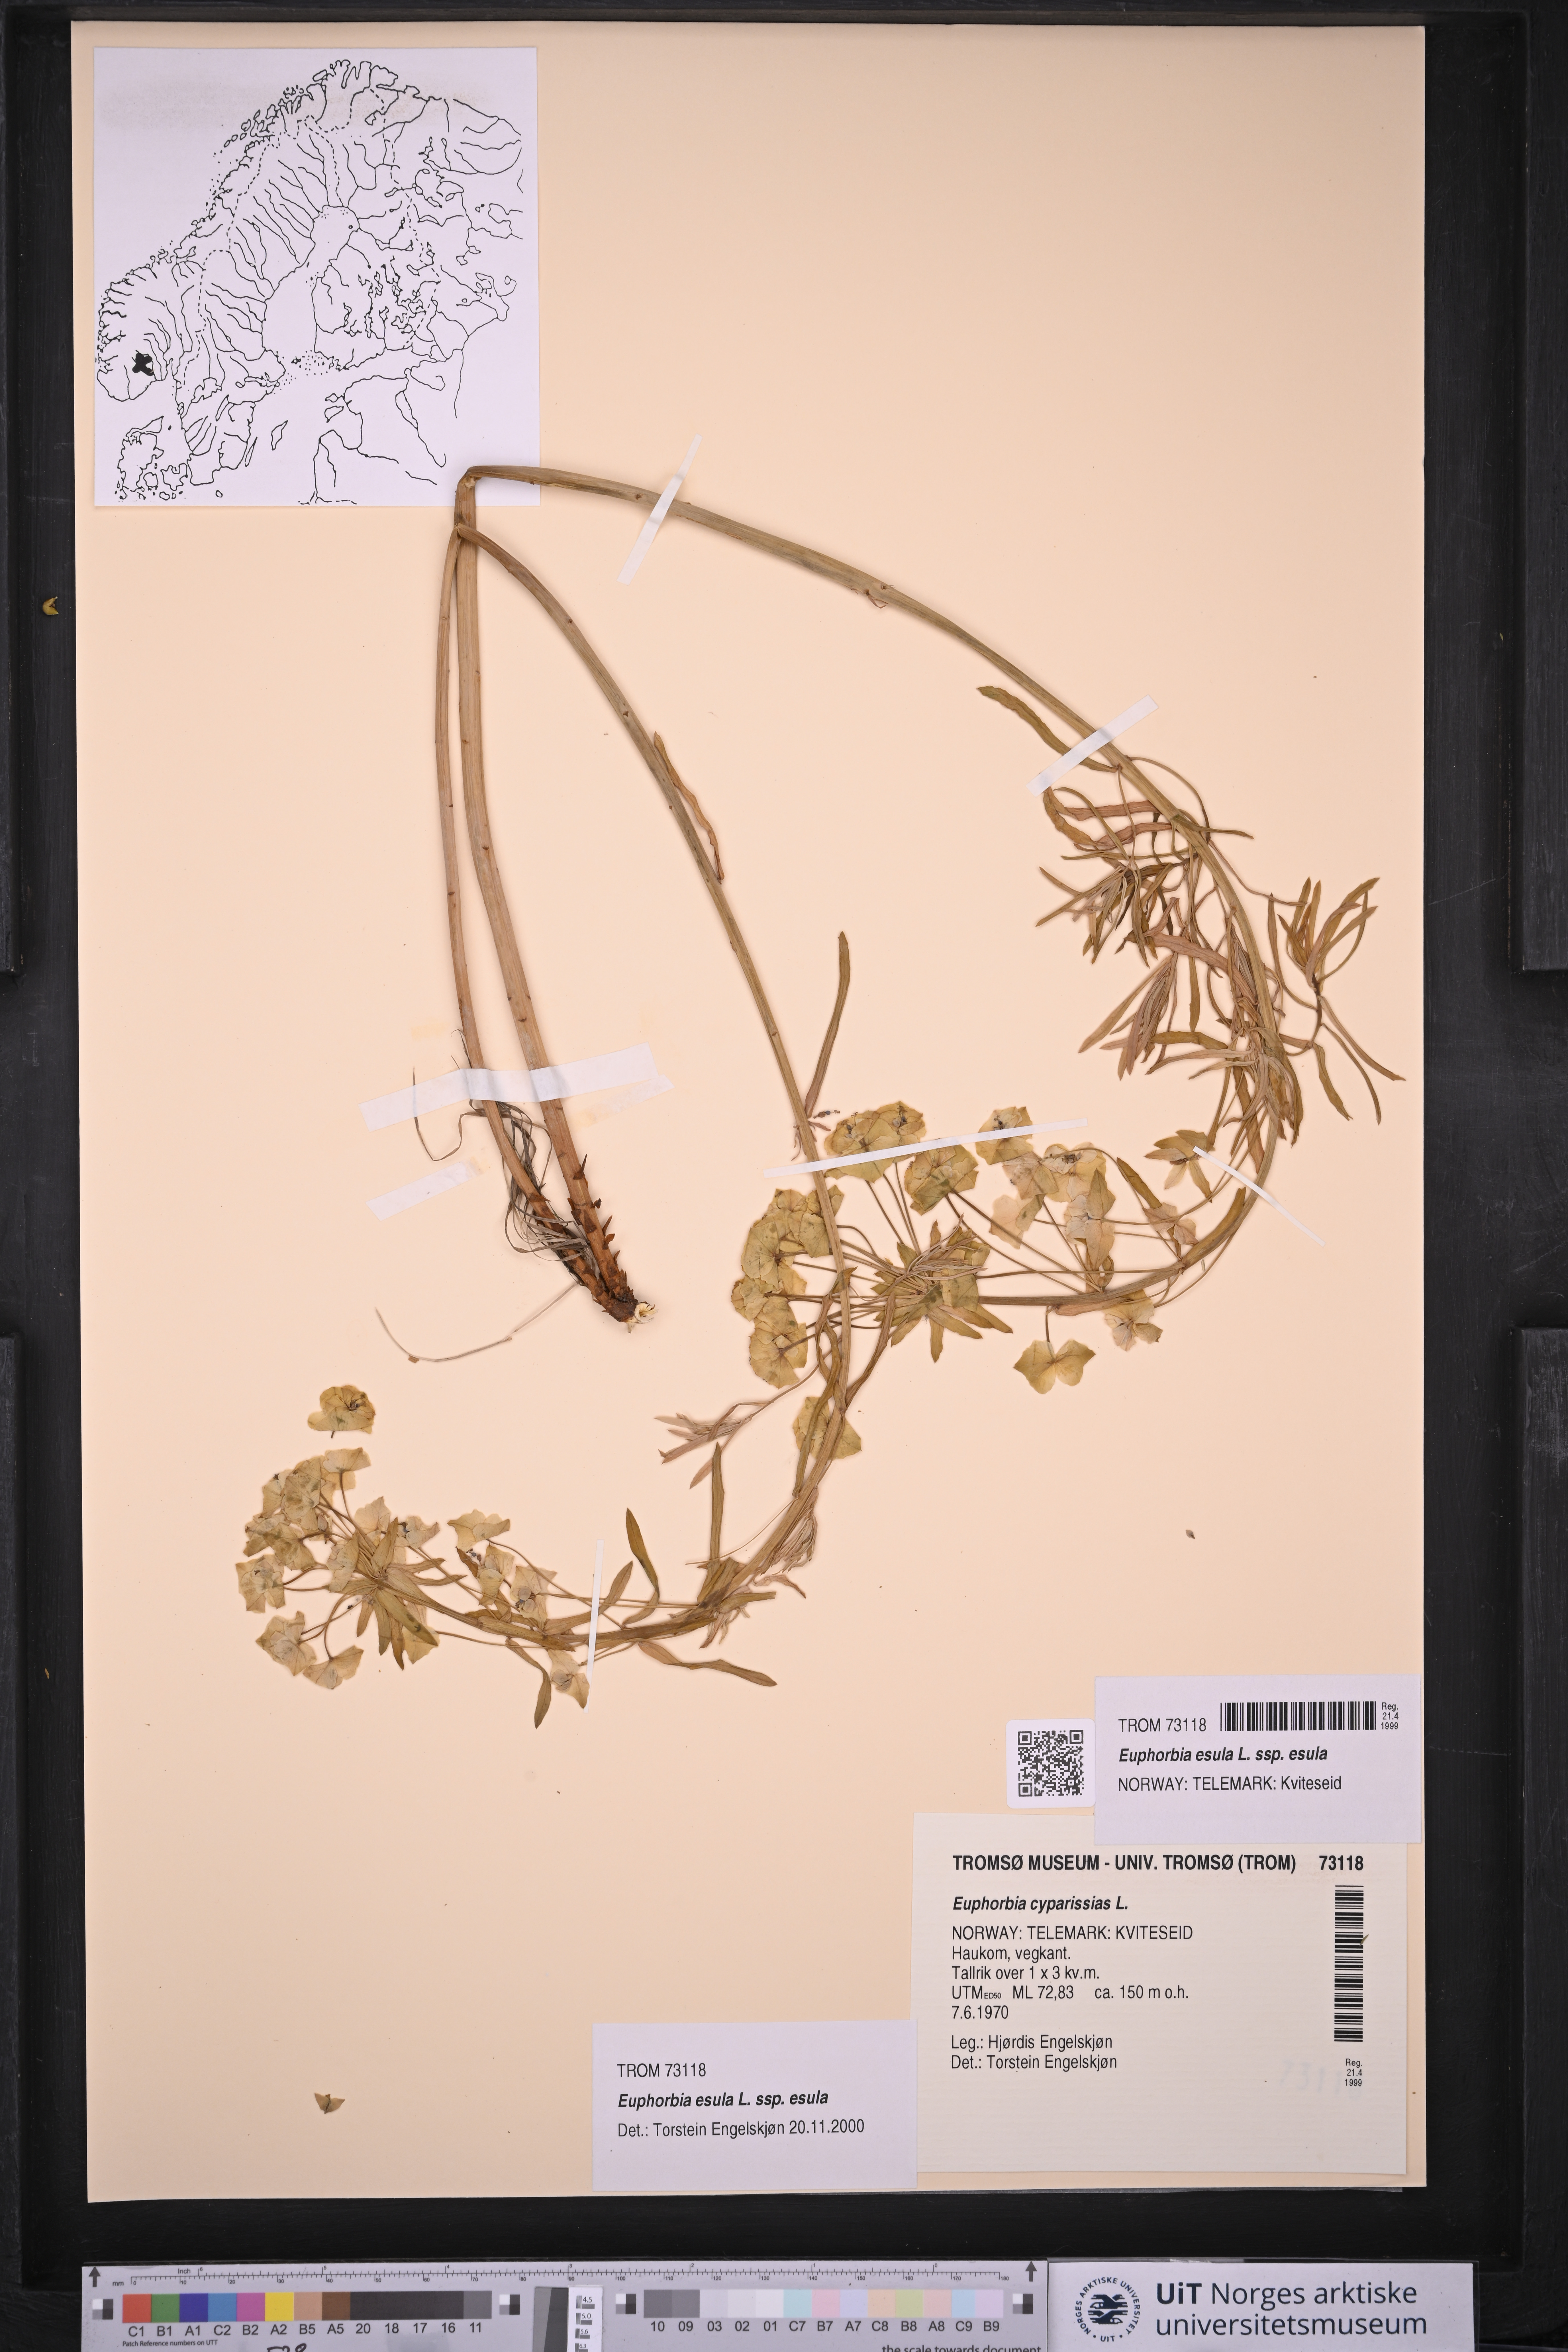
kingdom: Plantae
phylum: Tracheophyta
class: Magnoliopsida
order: Malpighiales
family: Euphorbiaceae
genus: Euphorbia
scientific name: Euphorbia esula
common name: Leafy spurge
